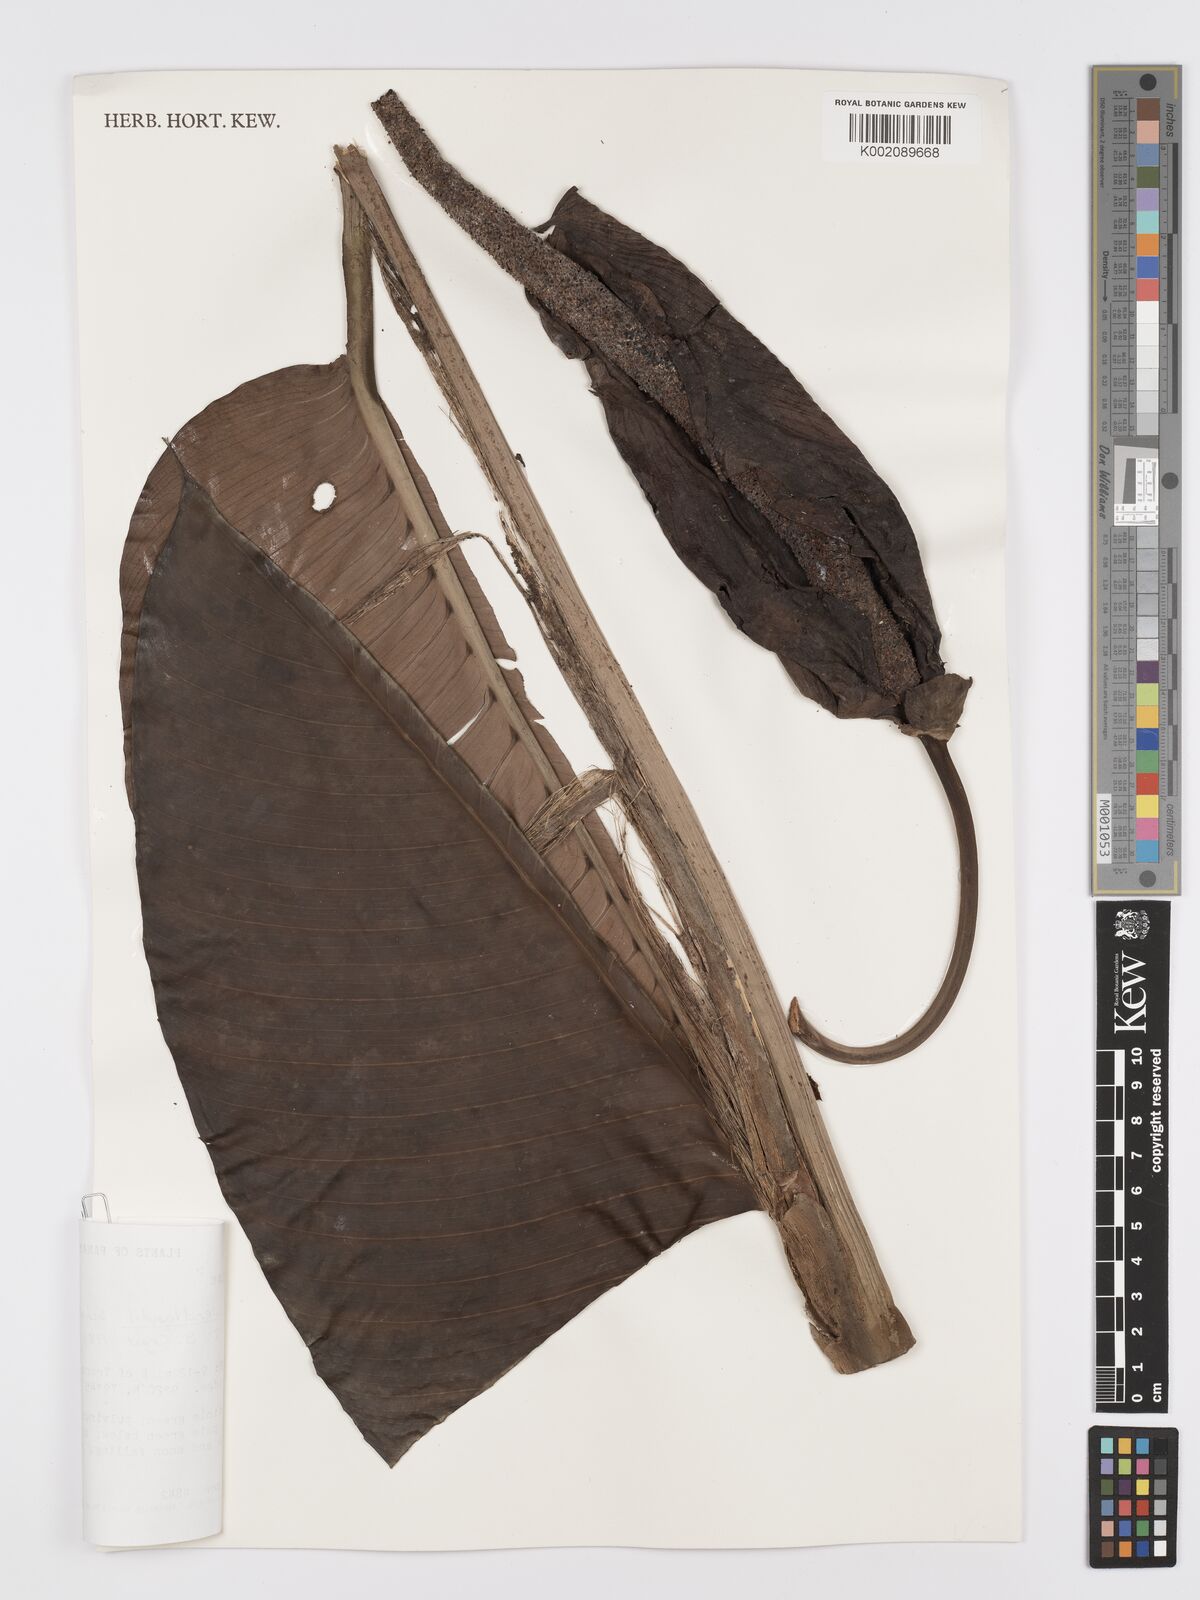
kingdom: Plantae
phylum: Tracheophyta
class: Liliopsida
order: Alismatales
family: Araceae
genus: Rhodospatha
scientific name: Rhodospatha wendlandii
